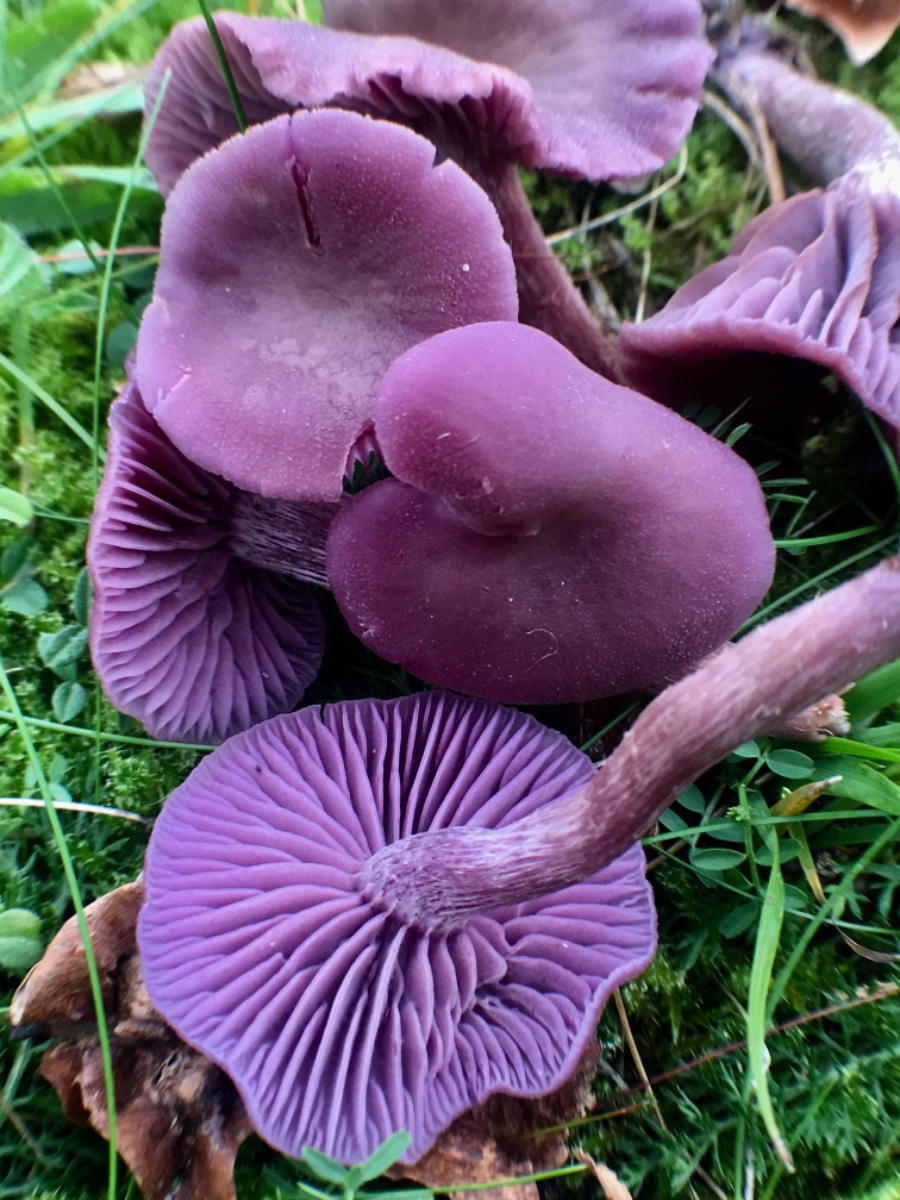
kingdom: Fungi
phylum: Basidiomycota
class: Agaricomycetes
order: Agaricales
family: Hydnangiaceae
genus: Laccaria
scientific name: Laccaria amethystina
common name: violet ametysthat
